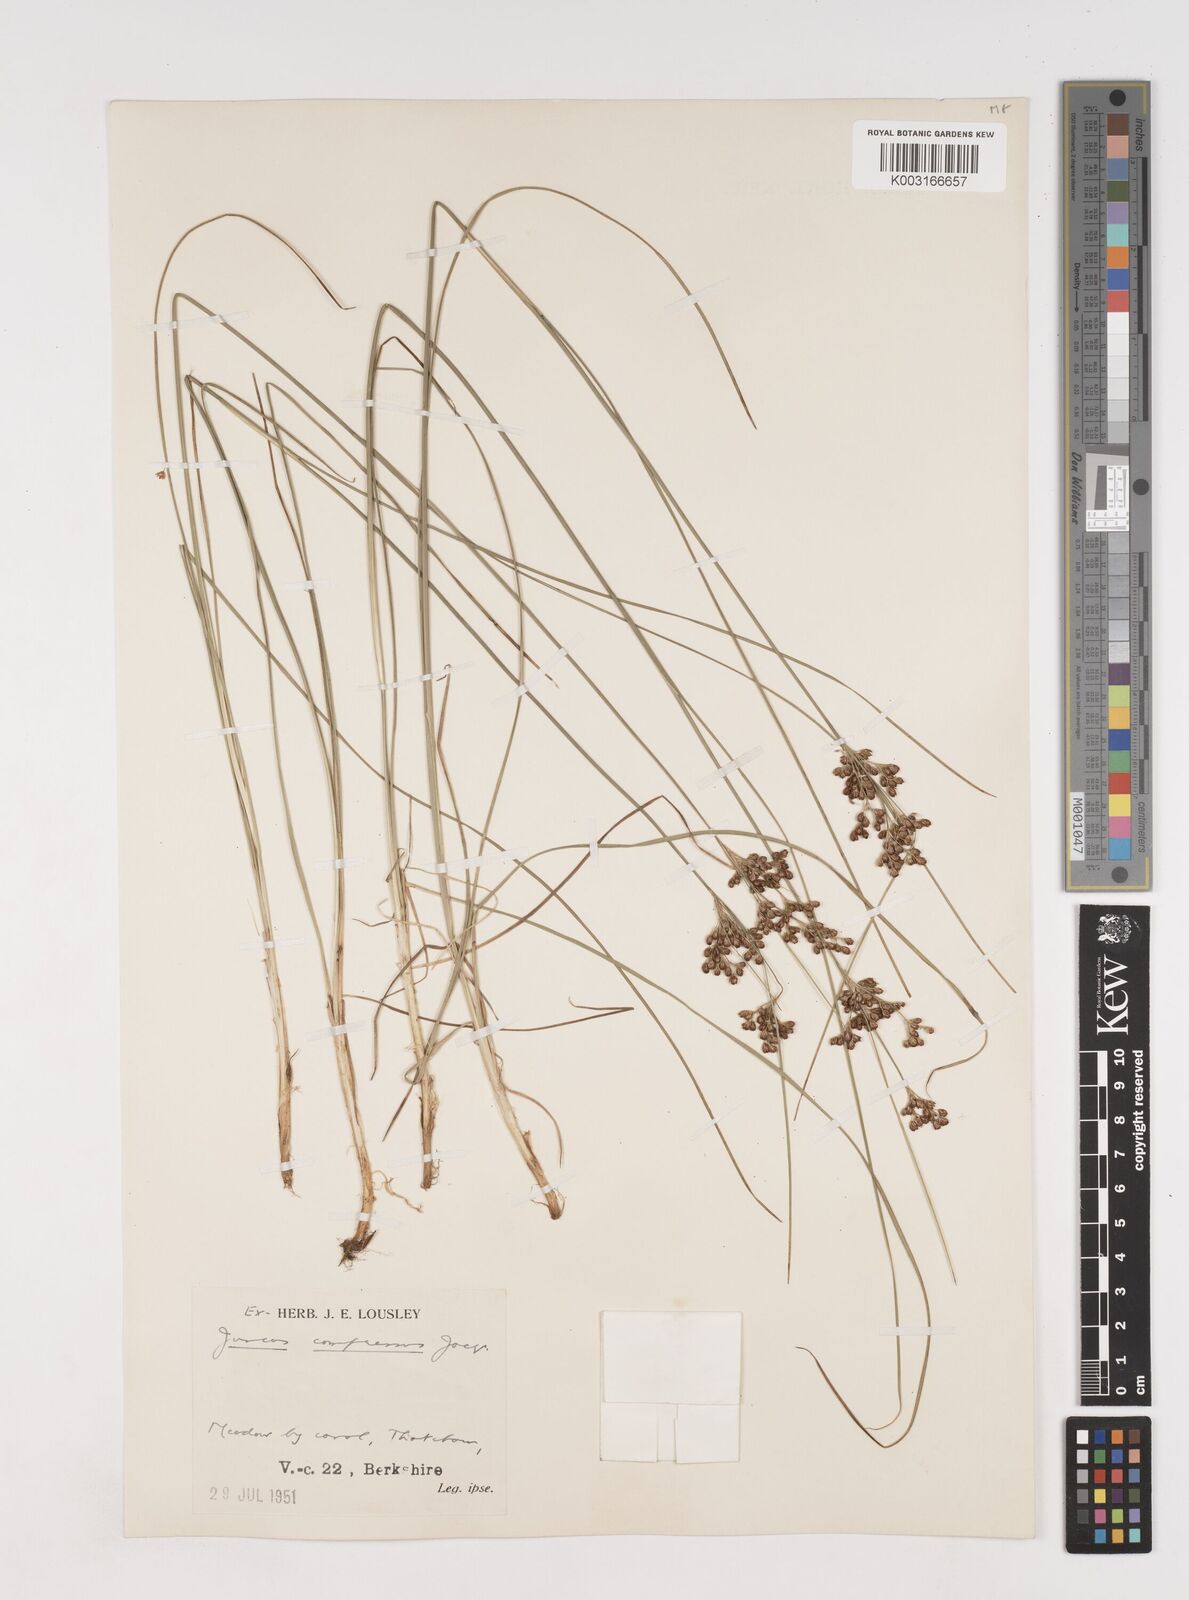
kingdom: Plantae
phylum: Tracheophyta
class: Liliopsida
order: Poales
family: Juncaceae
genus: Juncus
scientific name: Juncus compressus
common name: Round-fruited rush
